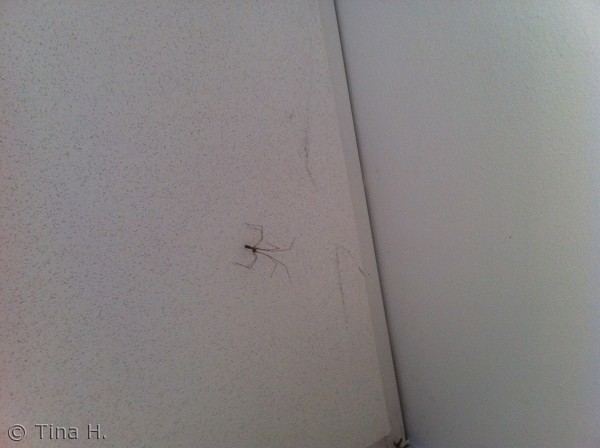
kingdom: Animalia
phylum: Arthropoda
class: Arachnida
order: Araneae
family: Pholcidae
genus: Pholcus
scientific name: Pholcus phalangioides
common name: Mejeredderkop
